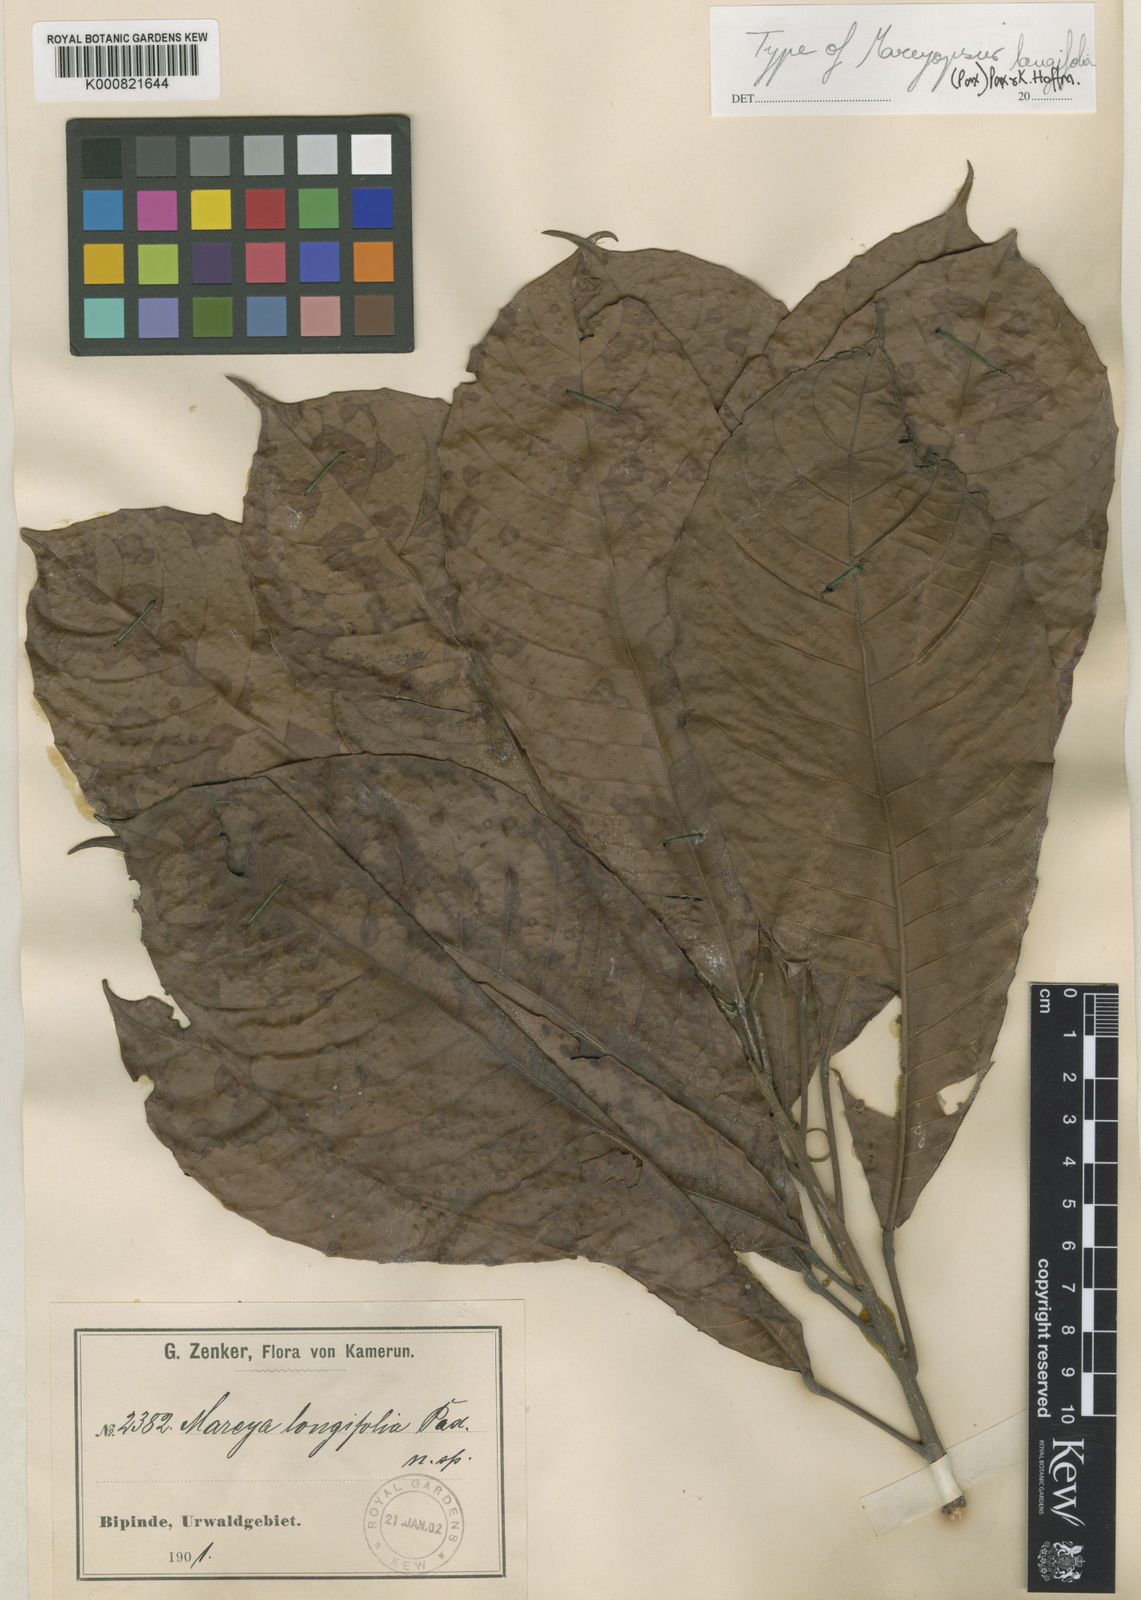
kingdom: Plantae
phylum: Tracheophyta
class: Magnoliopsida
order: Malpighiales
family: Euphorbiaceae
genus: Mareyopsis
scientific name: Mareyopsis longifolia
